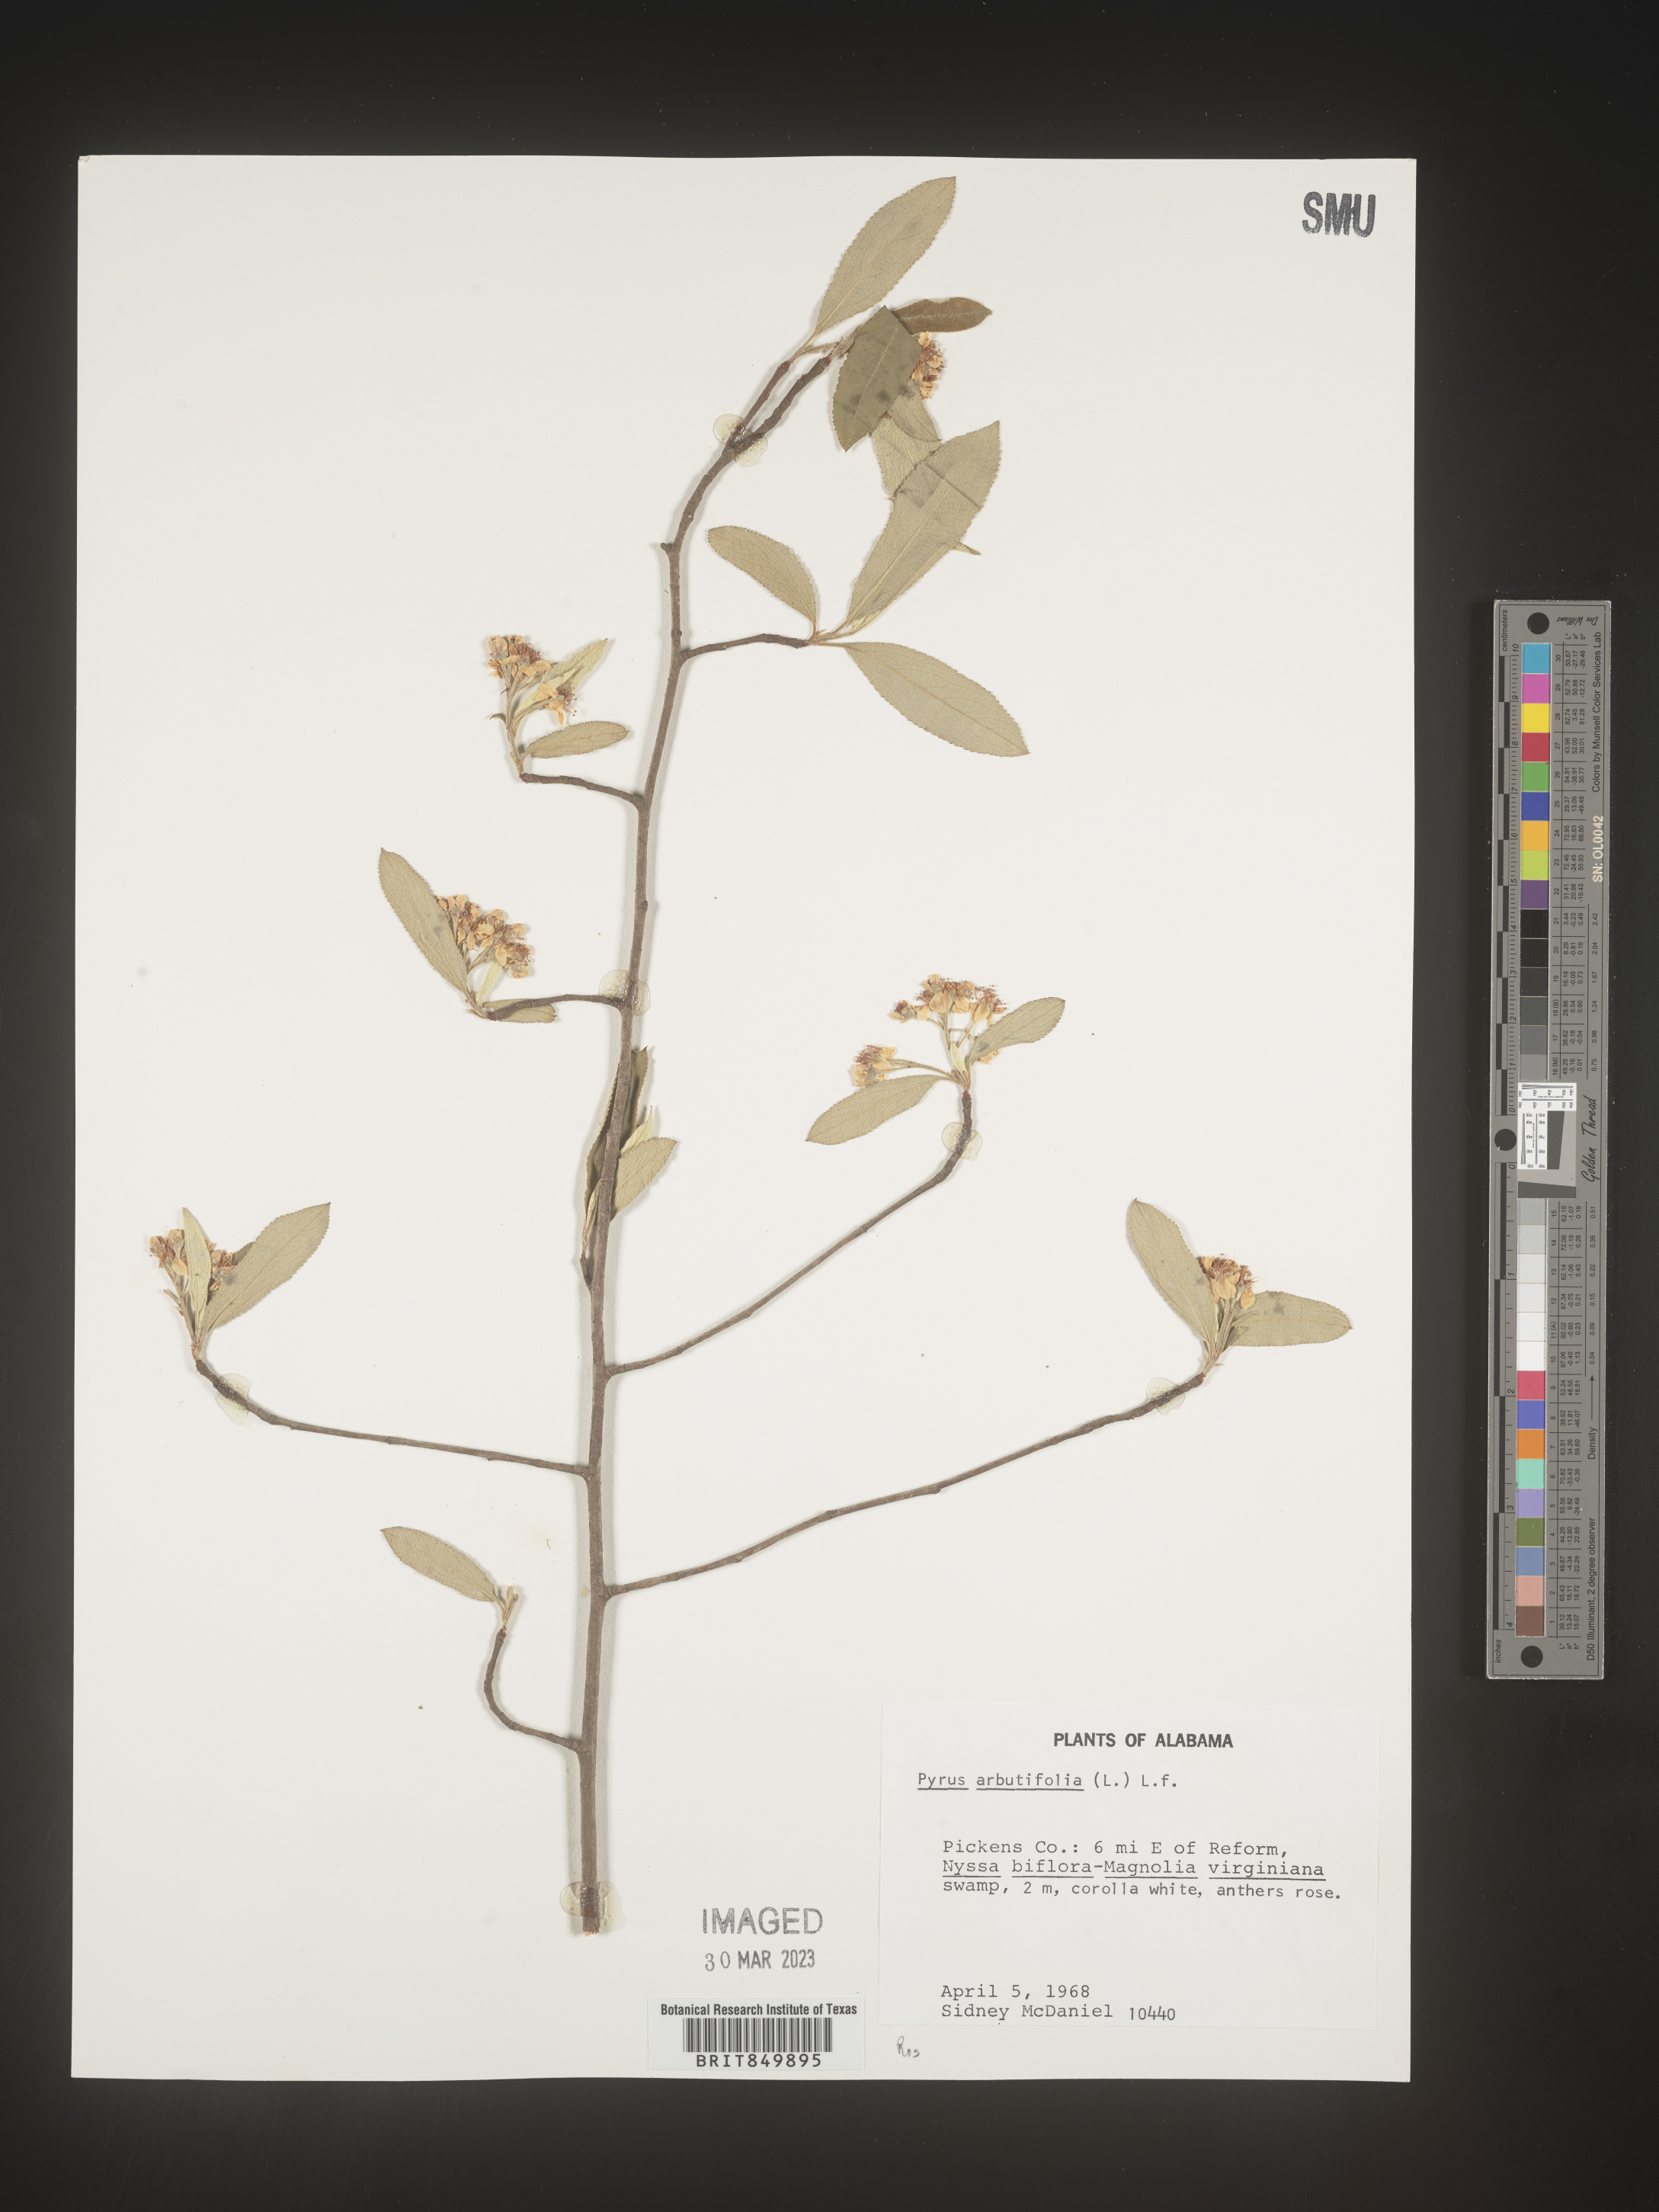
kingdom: Plantae
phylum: Tracheophyta
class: Magnoliopsida
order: Rosales
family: Rosaceae
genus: Pyrus
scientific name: Pyrus
